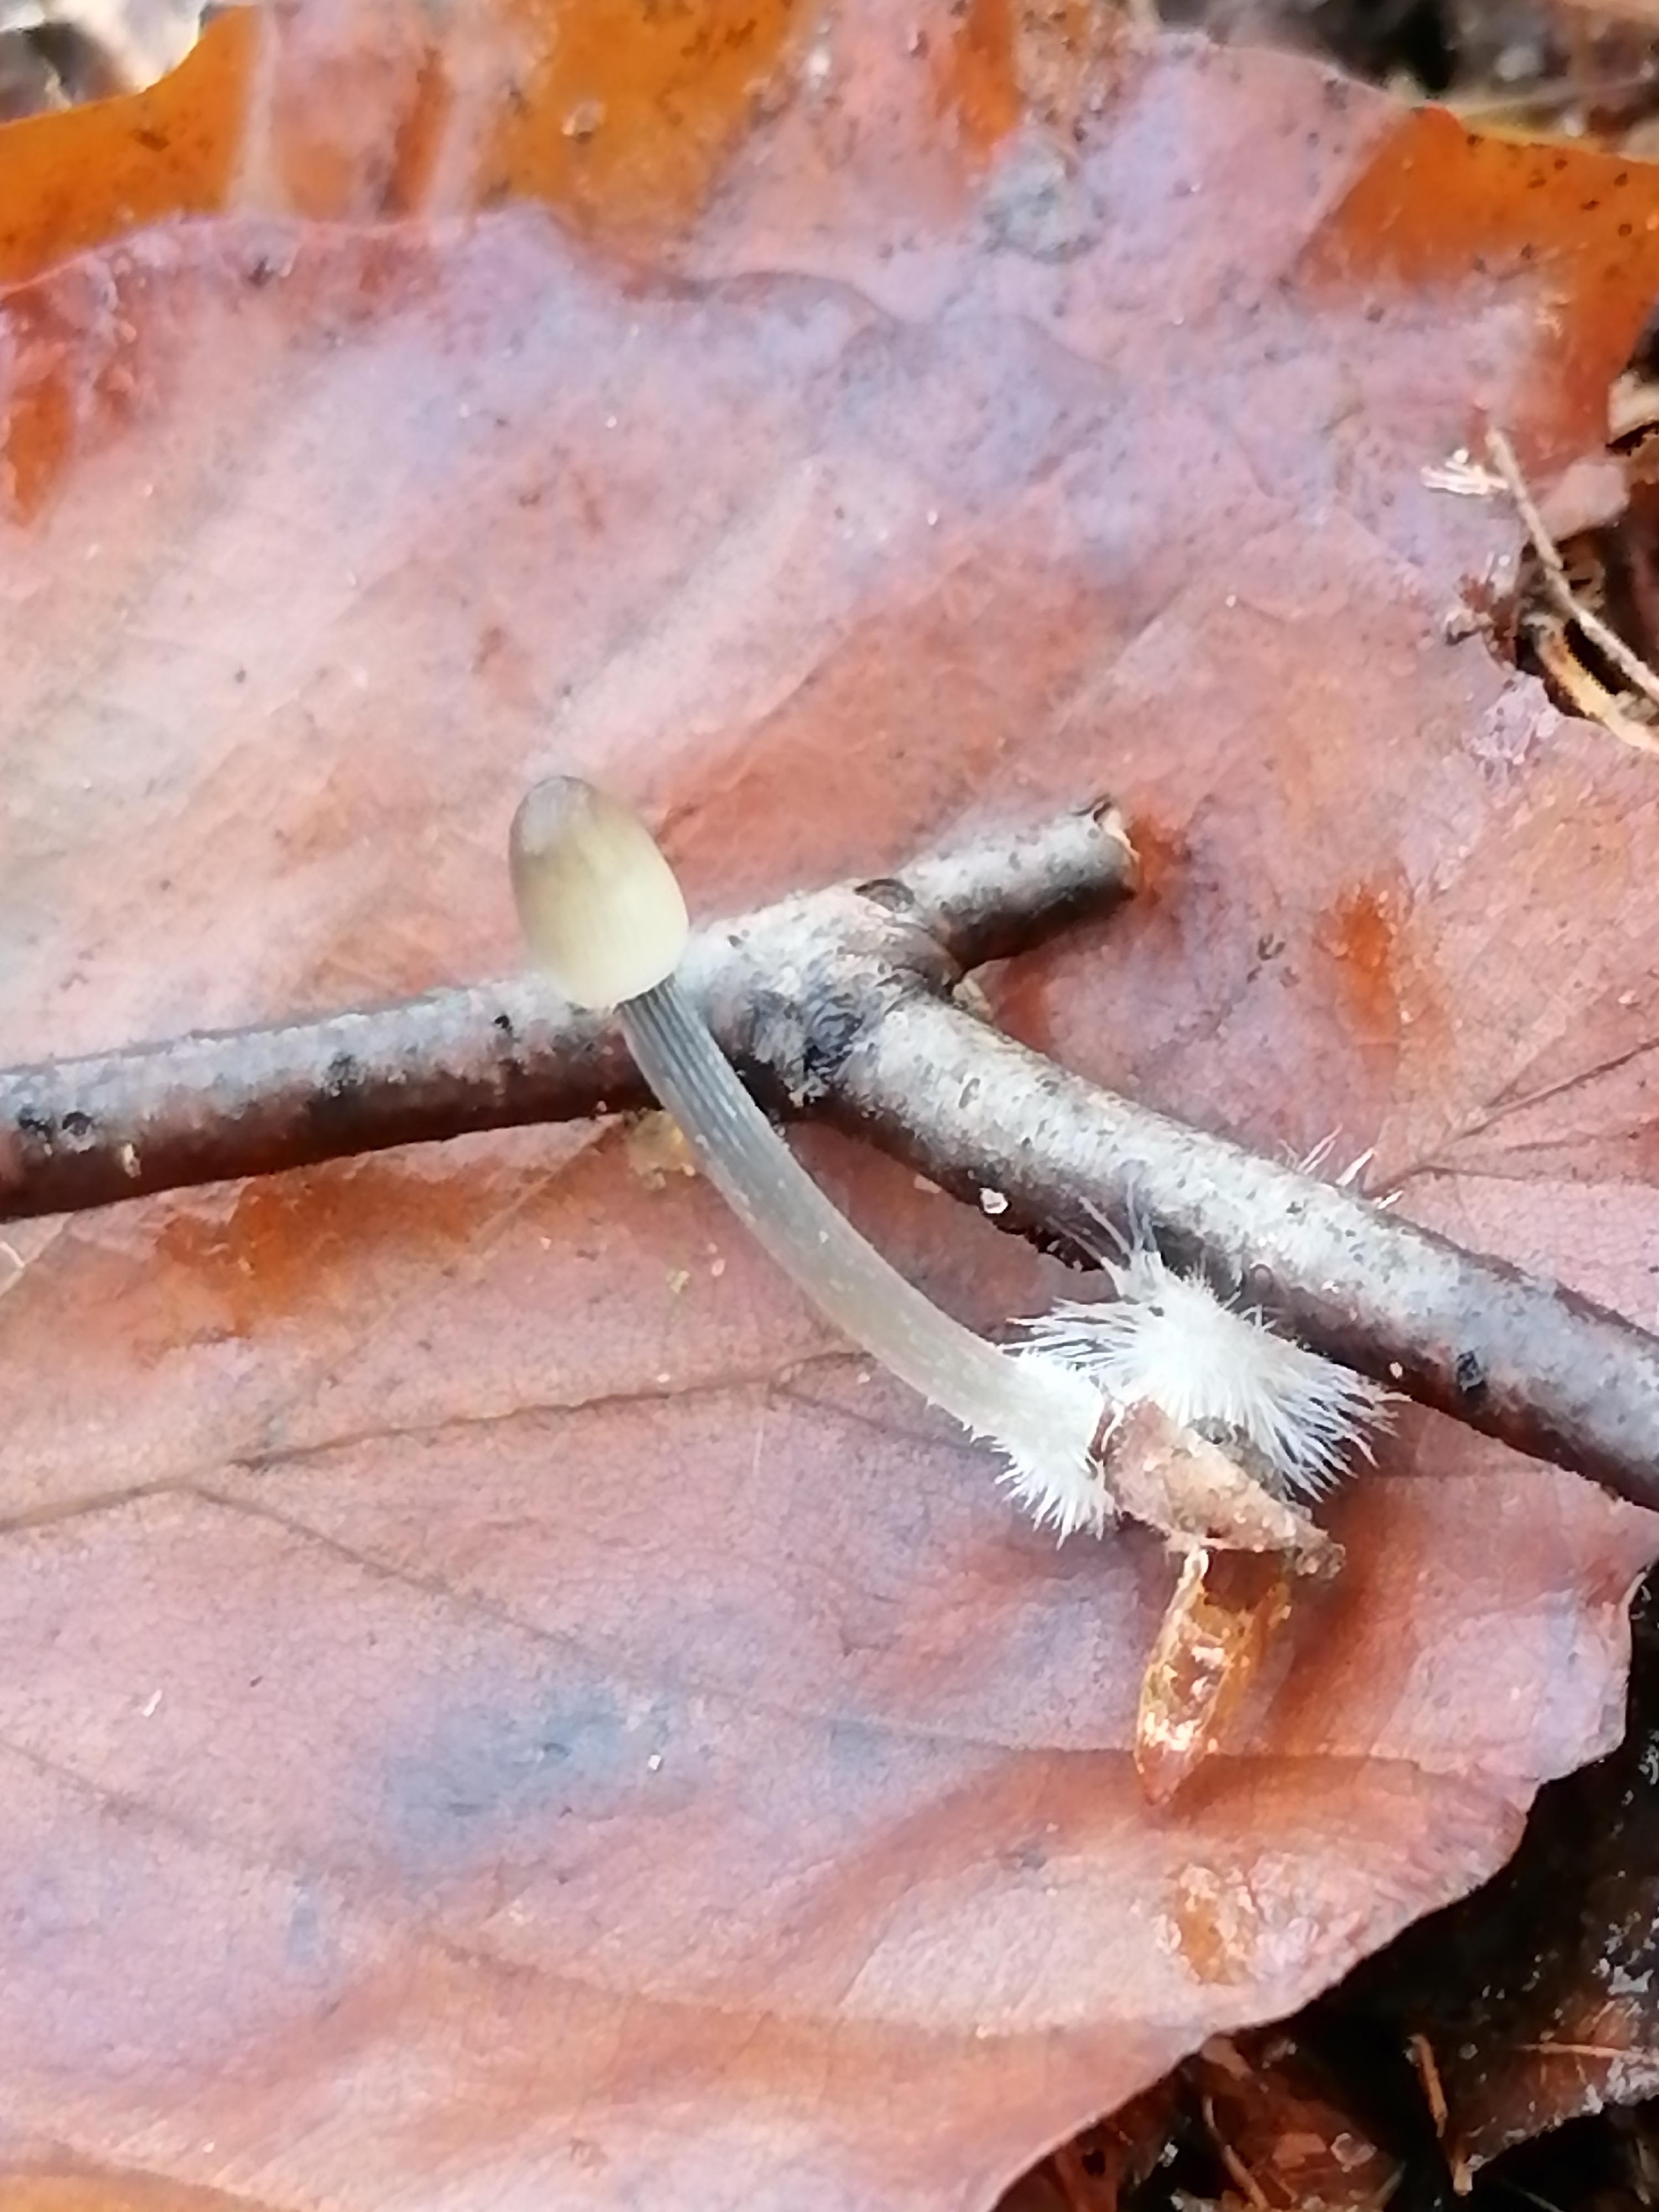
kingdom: Fungi
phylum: Basidiomycota
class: Agaricomycetes
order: Agaricales
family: Mycenaceae
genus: Mycena
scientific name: Mycena polygramma
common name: mangestribet huesvamp
